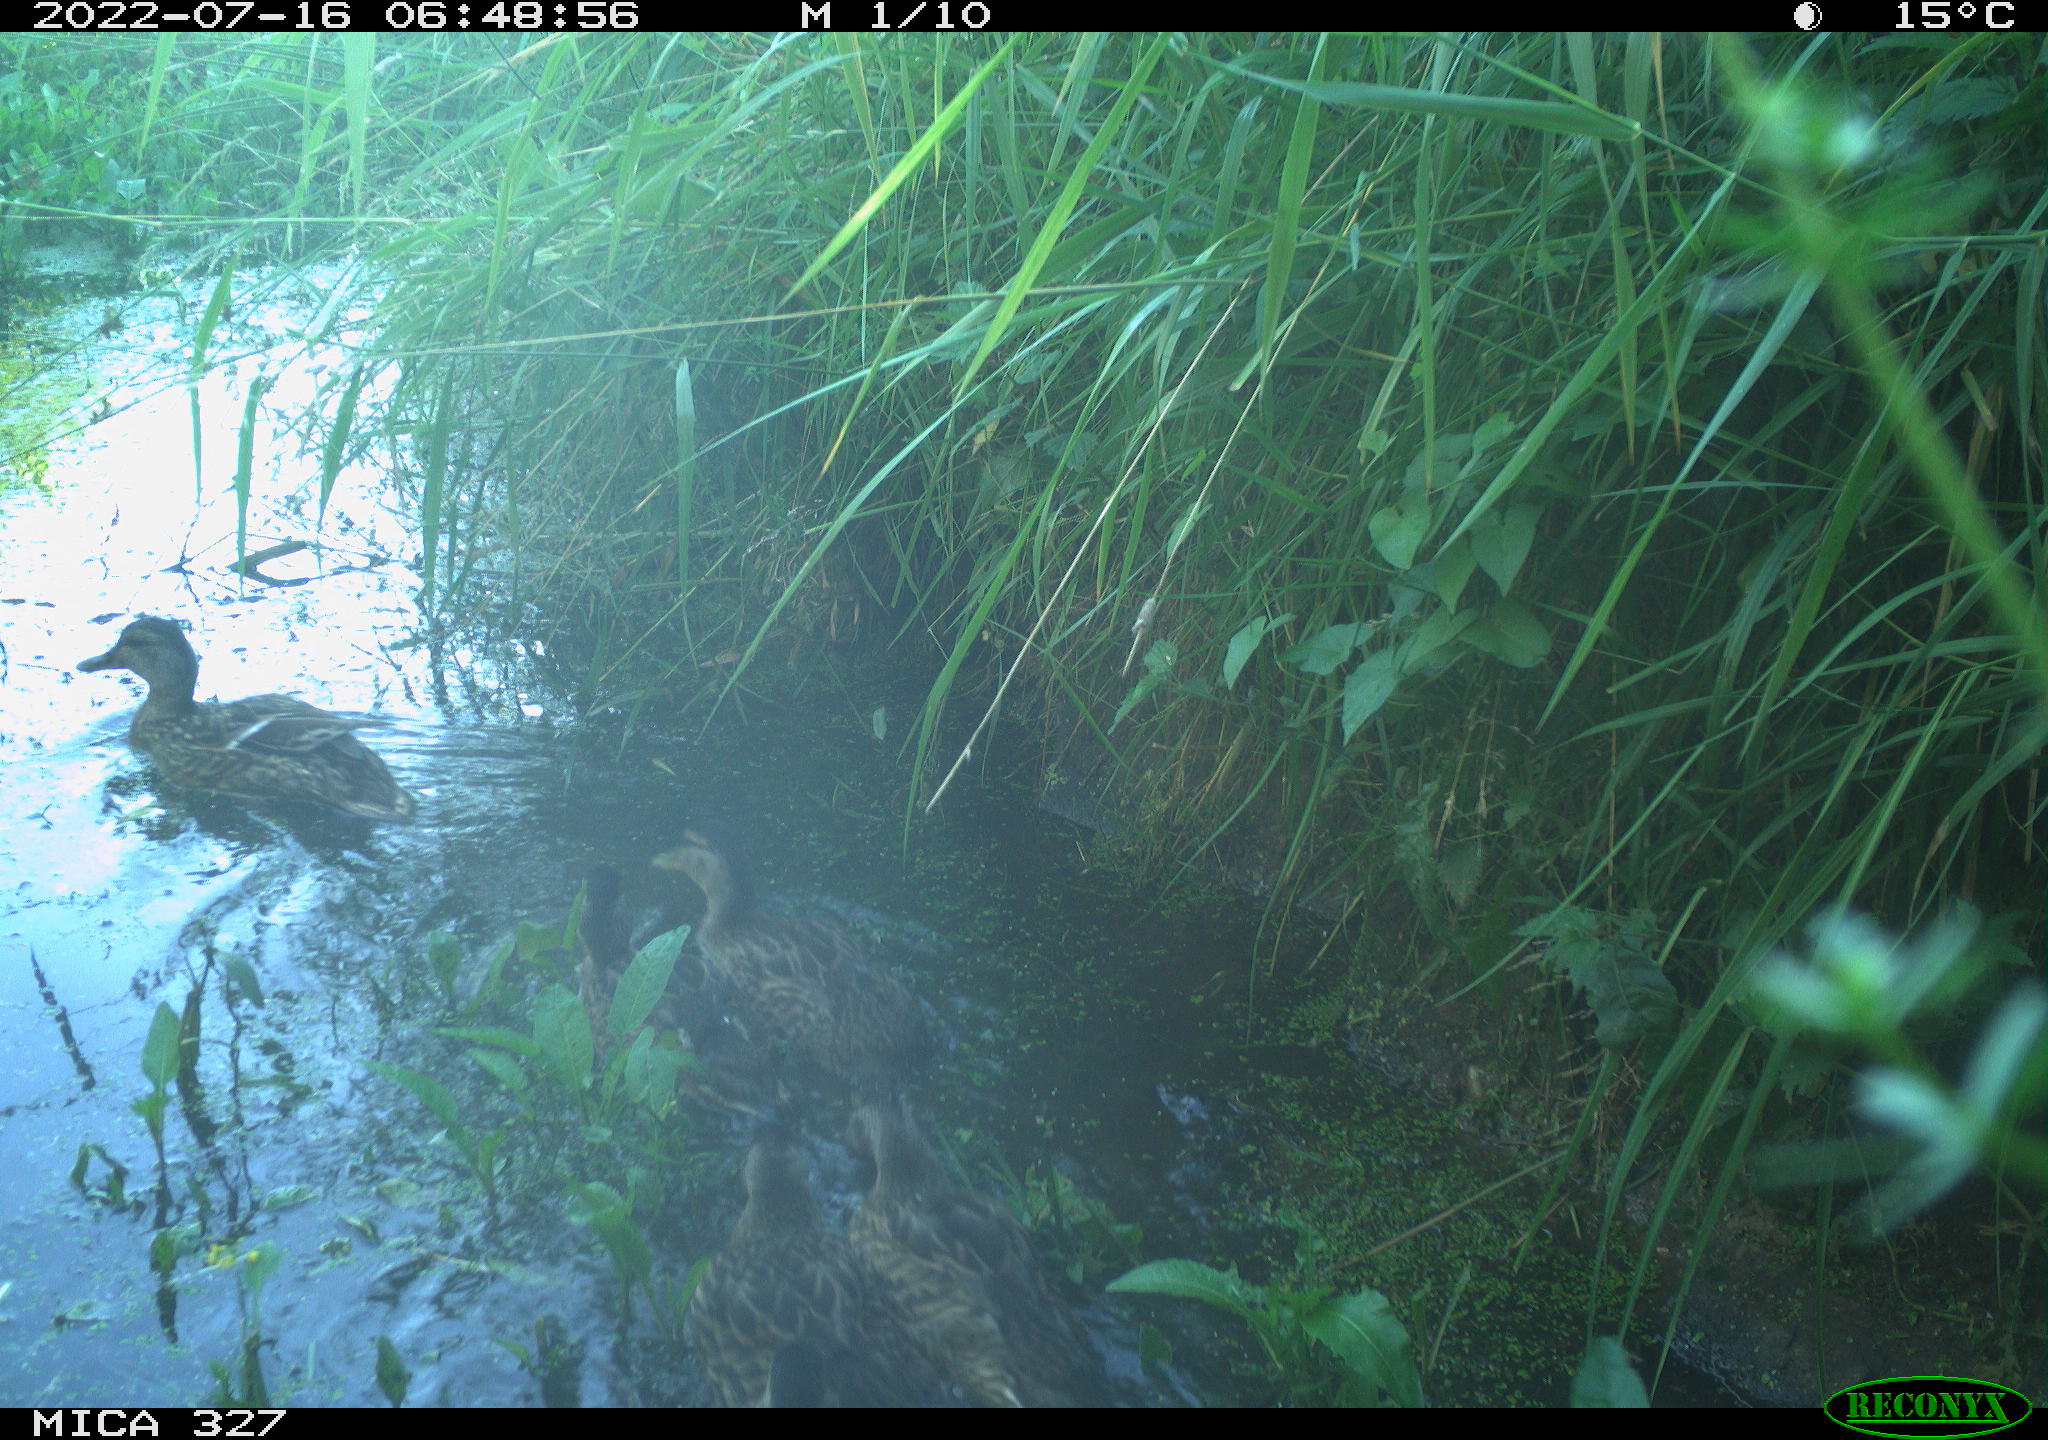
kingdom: Animalia
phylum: Chordata
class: Aves
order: Anseriformes
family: Anatidae
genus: Anas
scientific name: Anas
